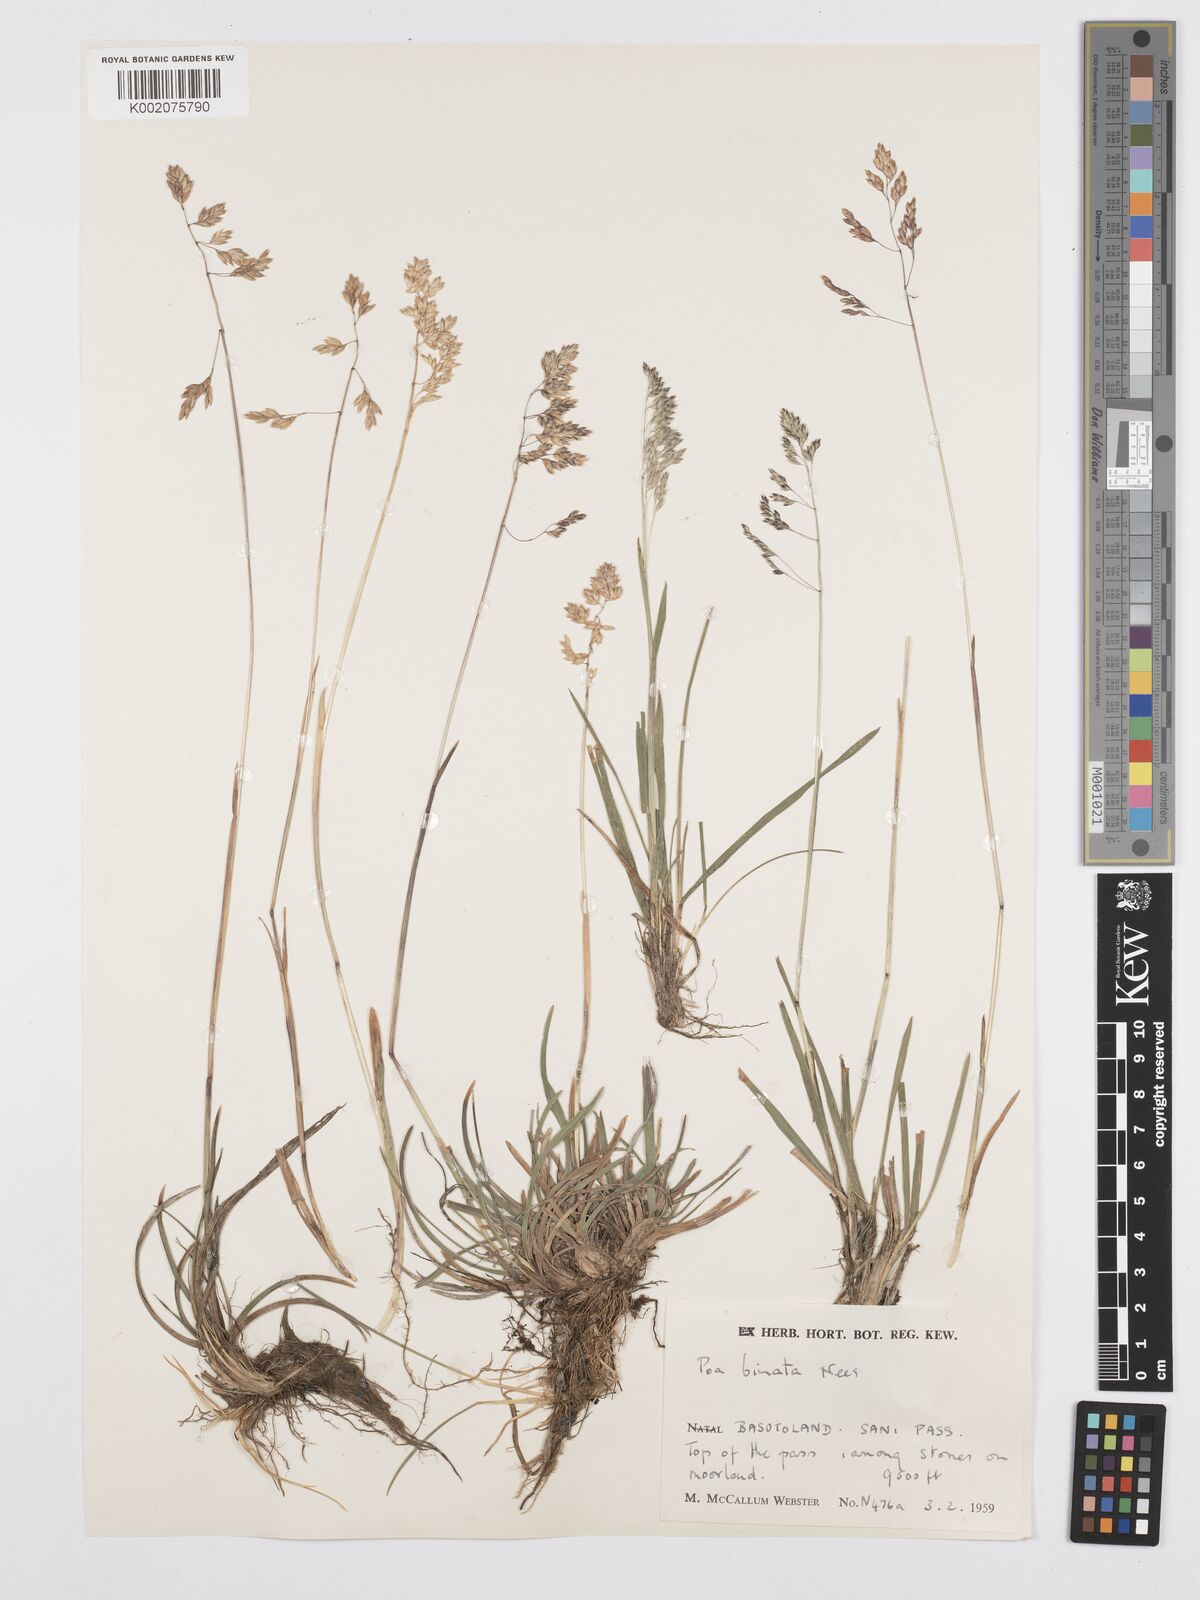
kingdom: Plantae
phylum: Tracheophyta
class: Liliopsida
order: Poales
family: Poaceae
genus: Poa
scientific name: Poa binata
